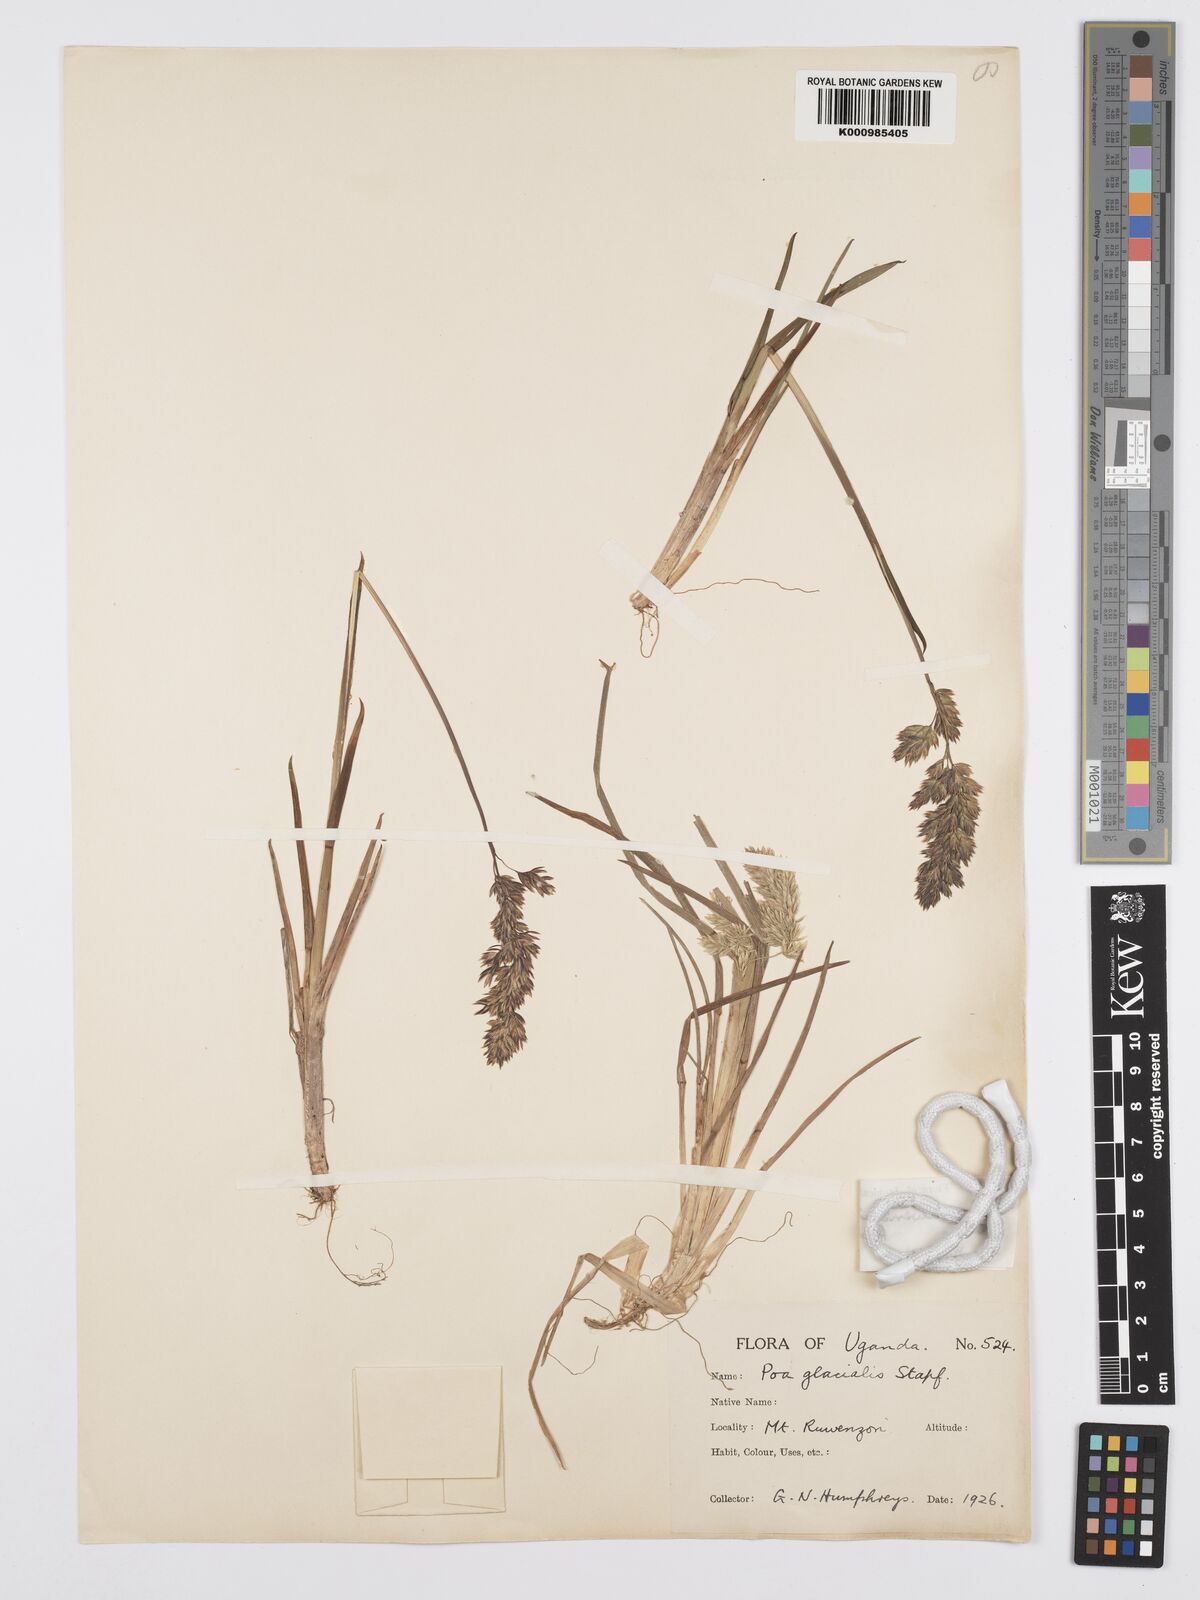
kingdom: Plantae
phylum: Tracheophyta
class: Liliopsida
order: Poales
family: Poaceae
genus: Poa
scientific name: Poa ruwenzoriensis
